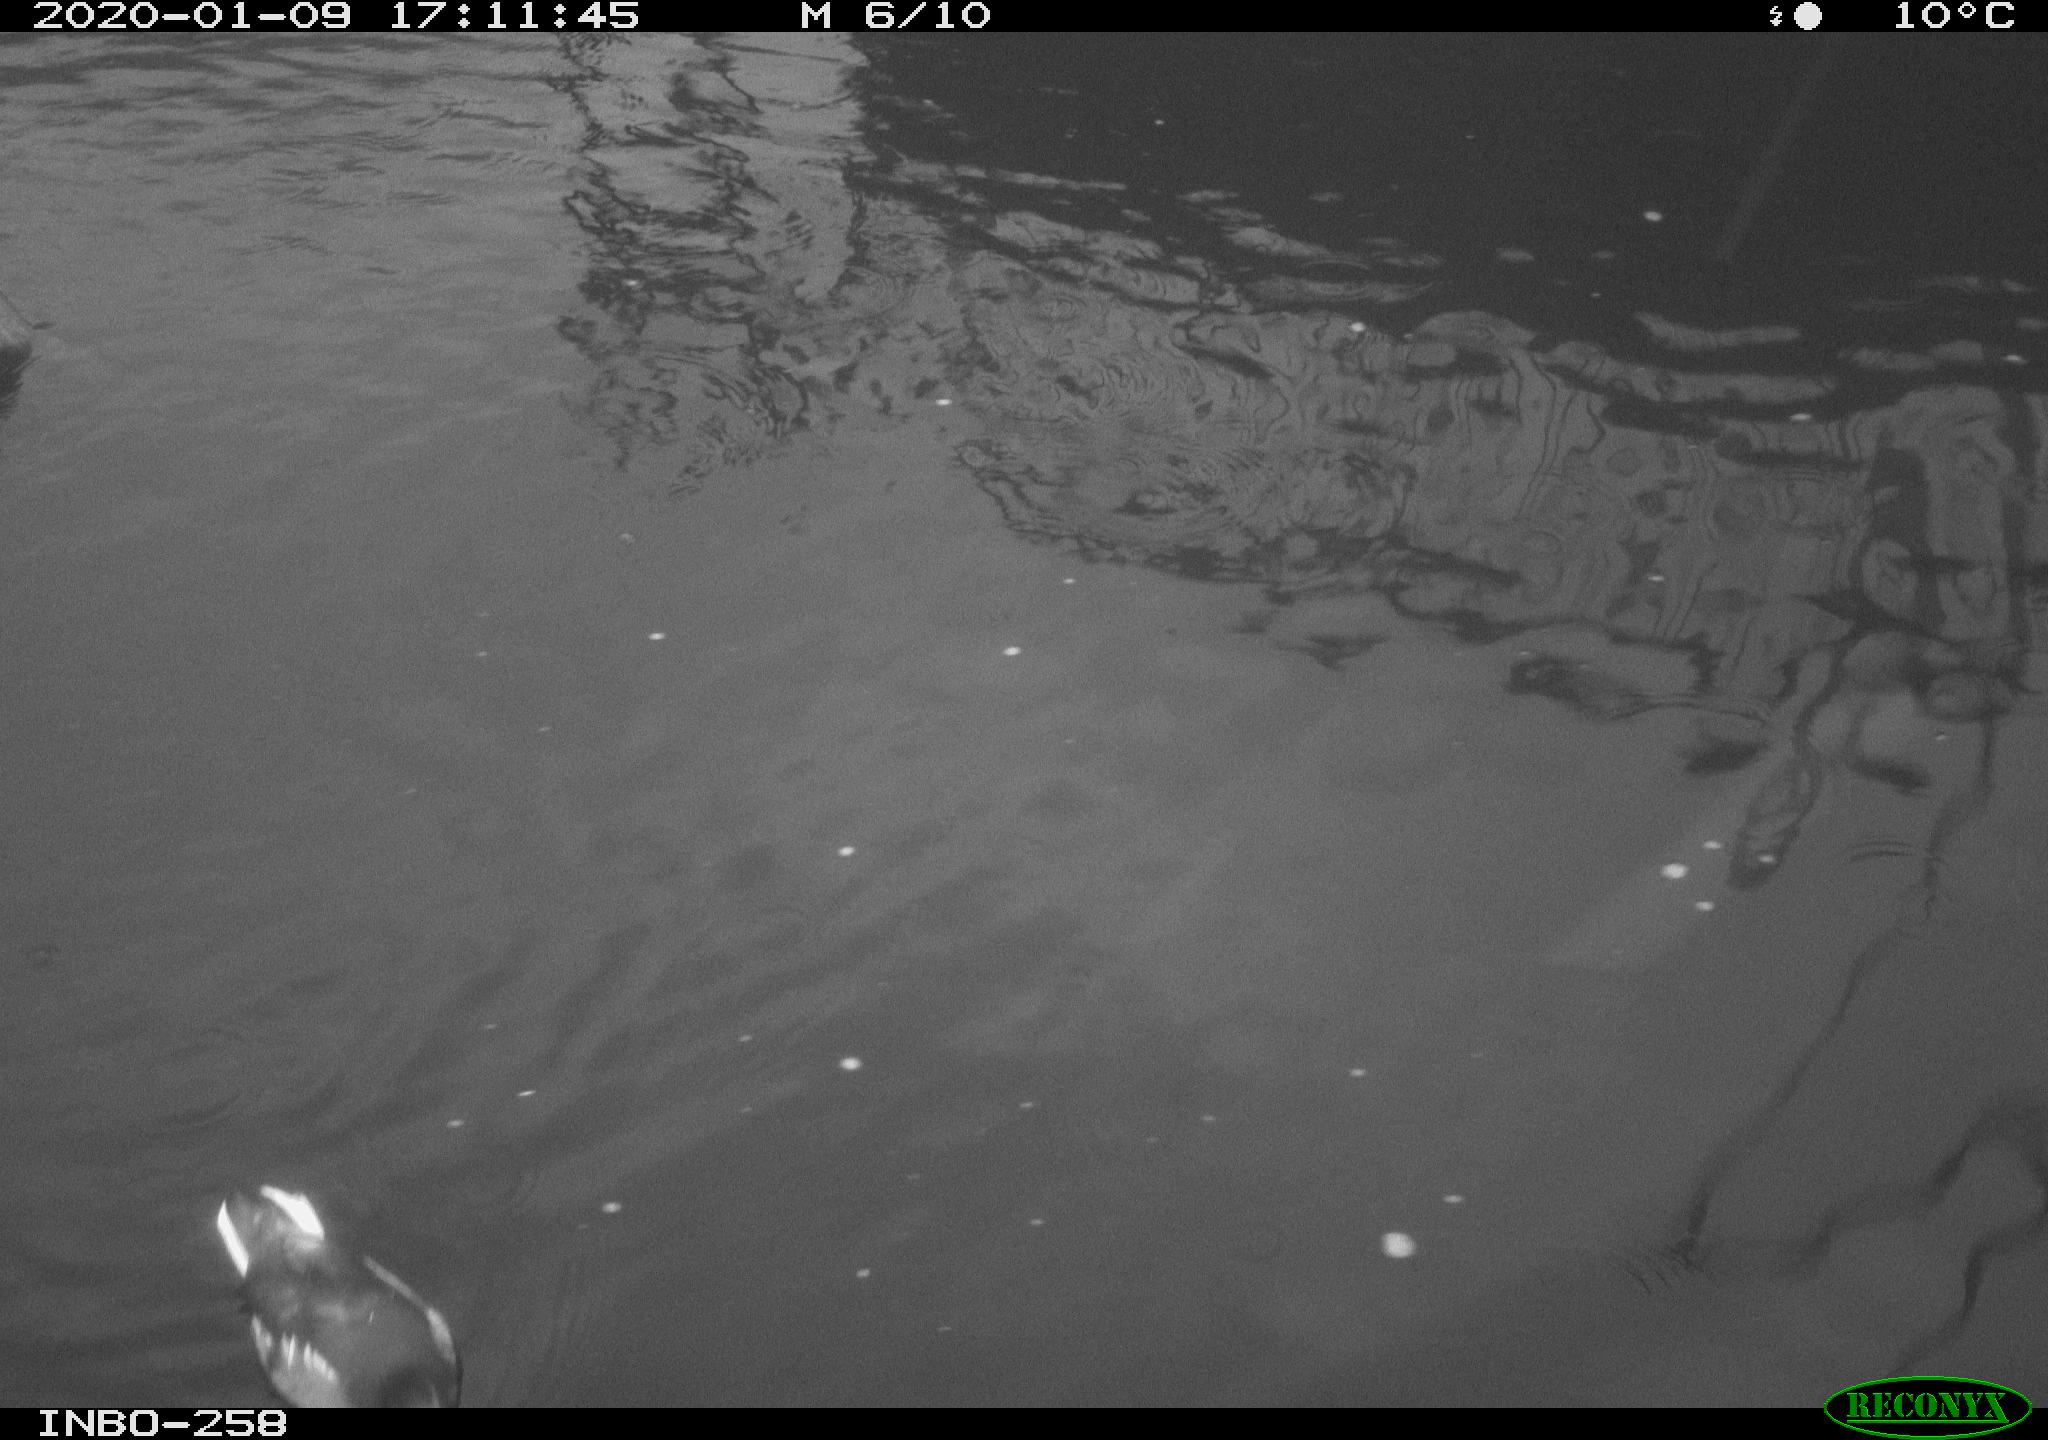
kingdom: Animalia
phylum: Chordata
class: Aves
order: Gruiformes
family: Rallidae
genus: Gallinula
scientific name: Gallinula chloropus
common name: Common moorhen
